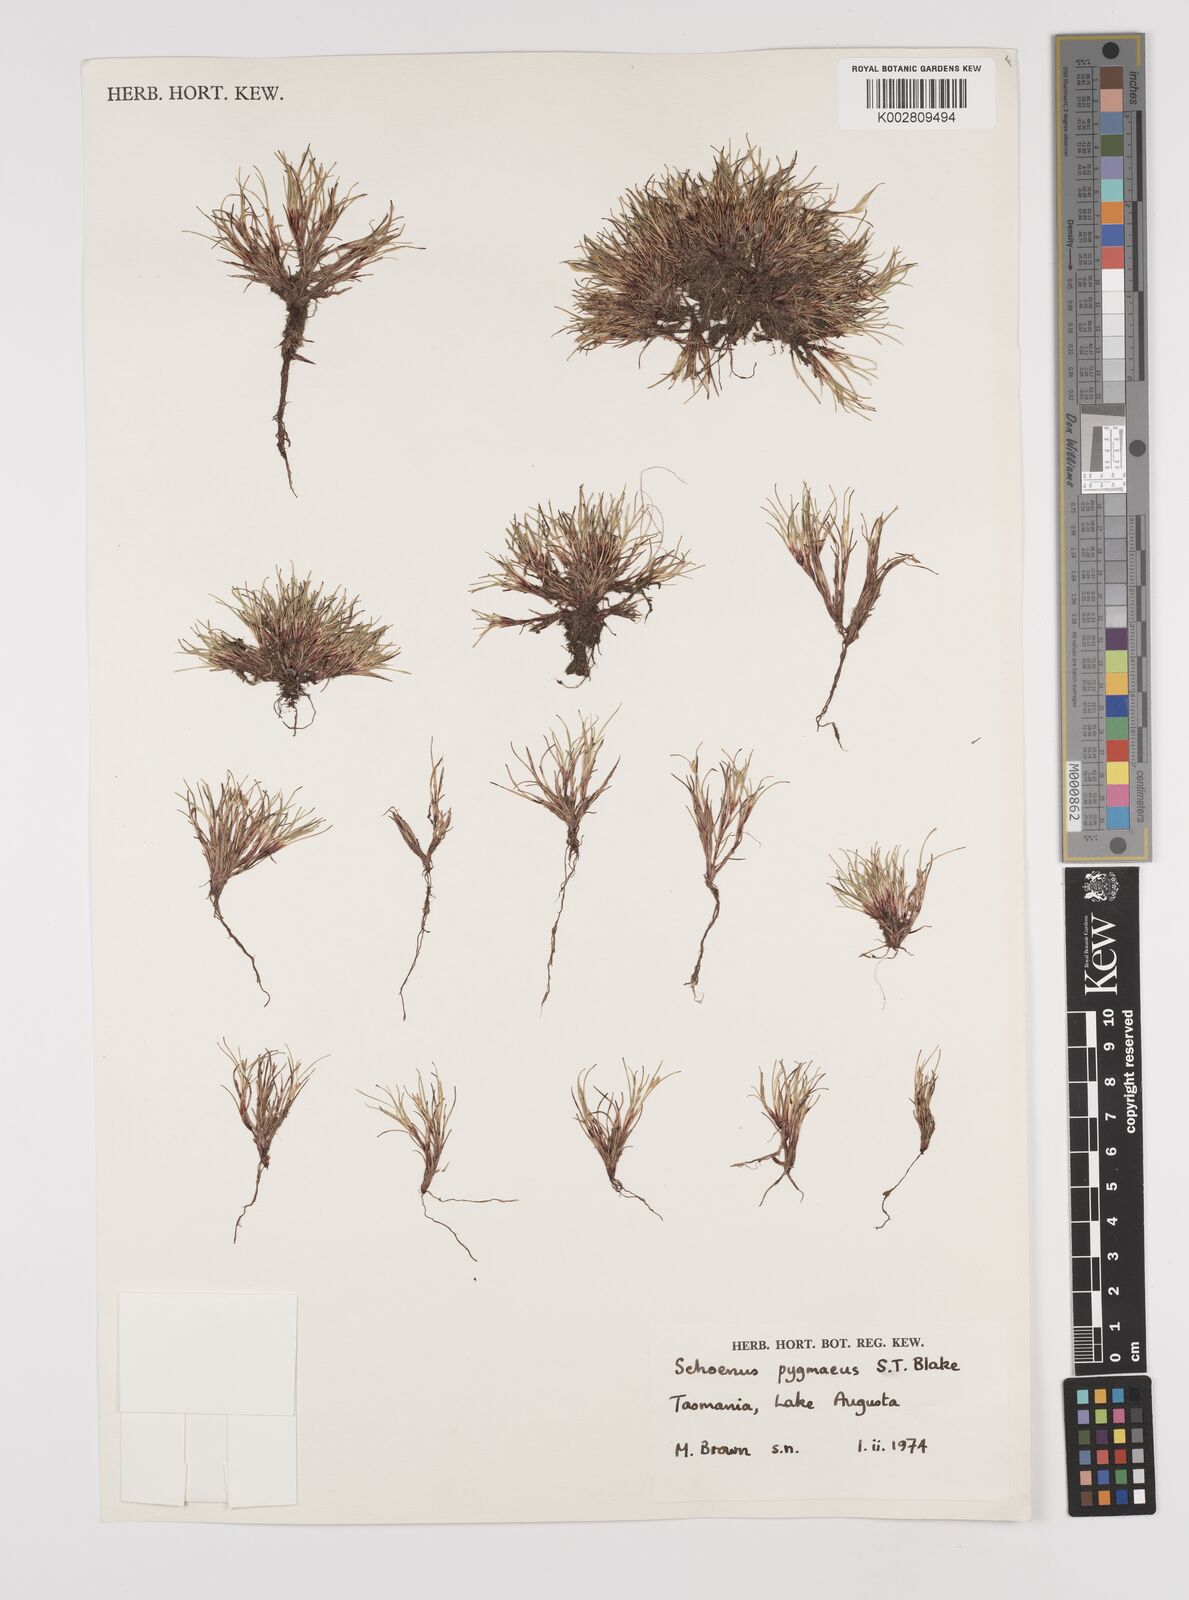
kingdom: Plantae
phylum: Tracheophyta
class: Liliopsida
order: Poales
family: Cyperaceae
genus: Schoenus
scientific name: Schoenus pygmaeus
